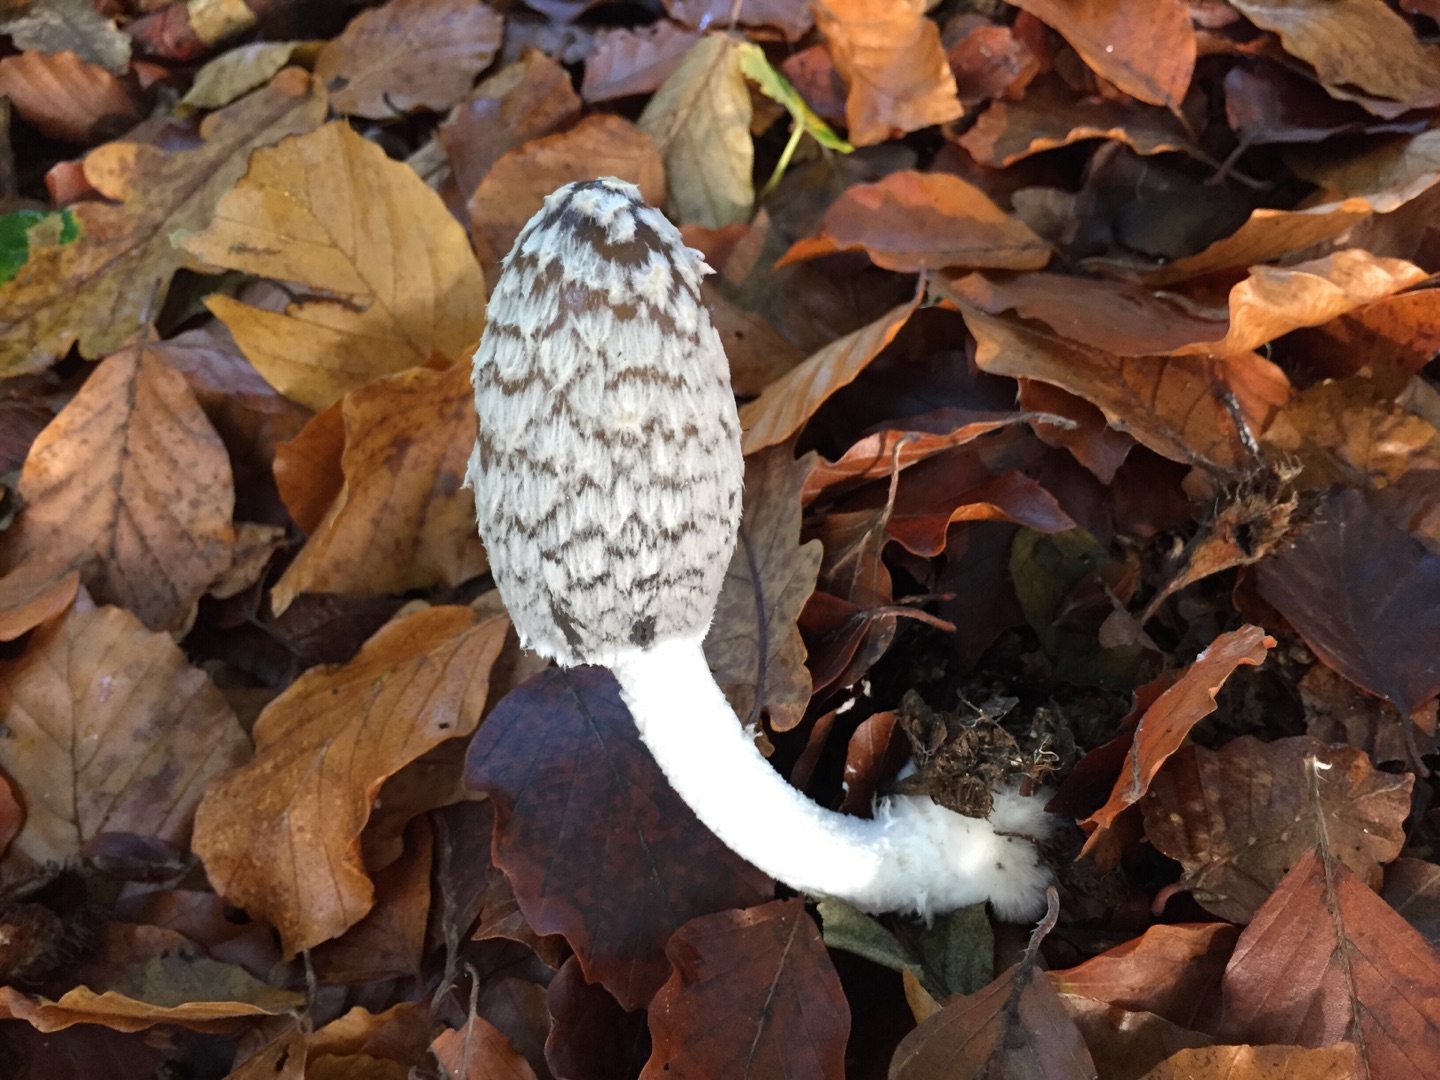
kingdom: Fungi
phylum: Basidiomycota
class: Agaricomycetes
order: Agaricales
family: Psathyrellaceae
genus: Coprinopsis
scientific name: Coprinopsis picacea
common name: Skade-blækhat
